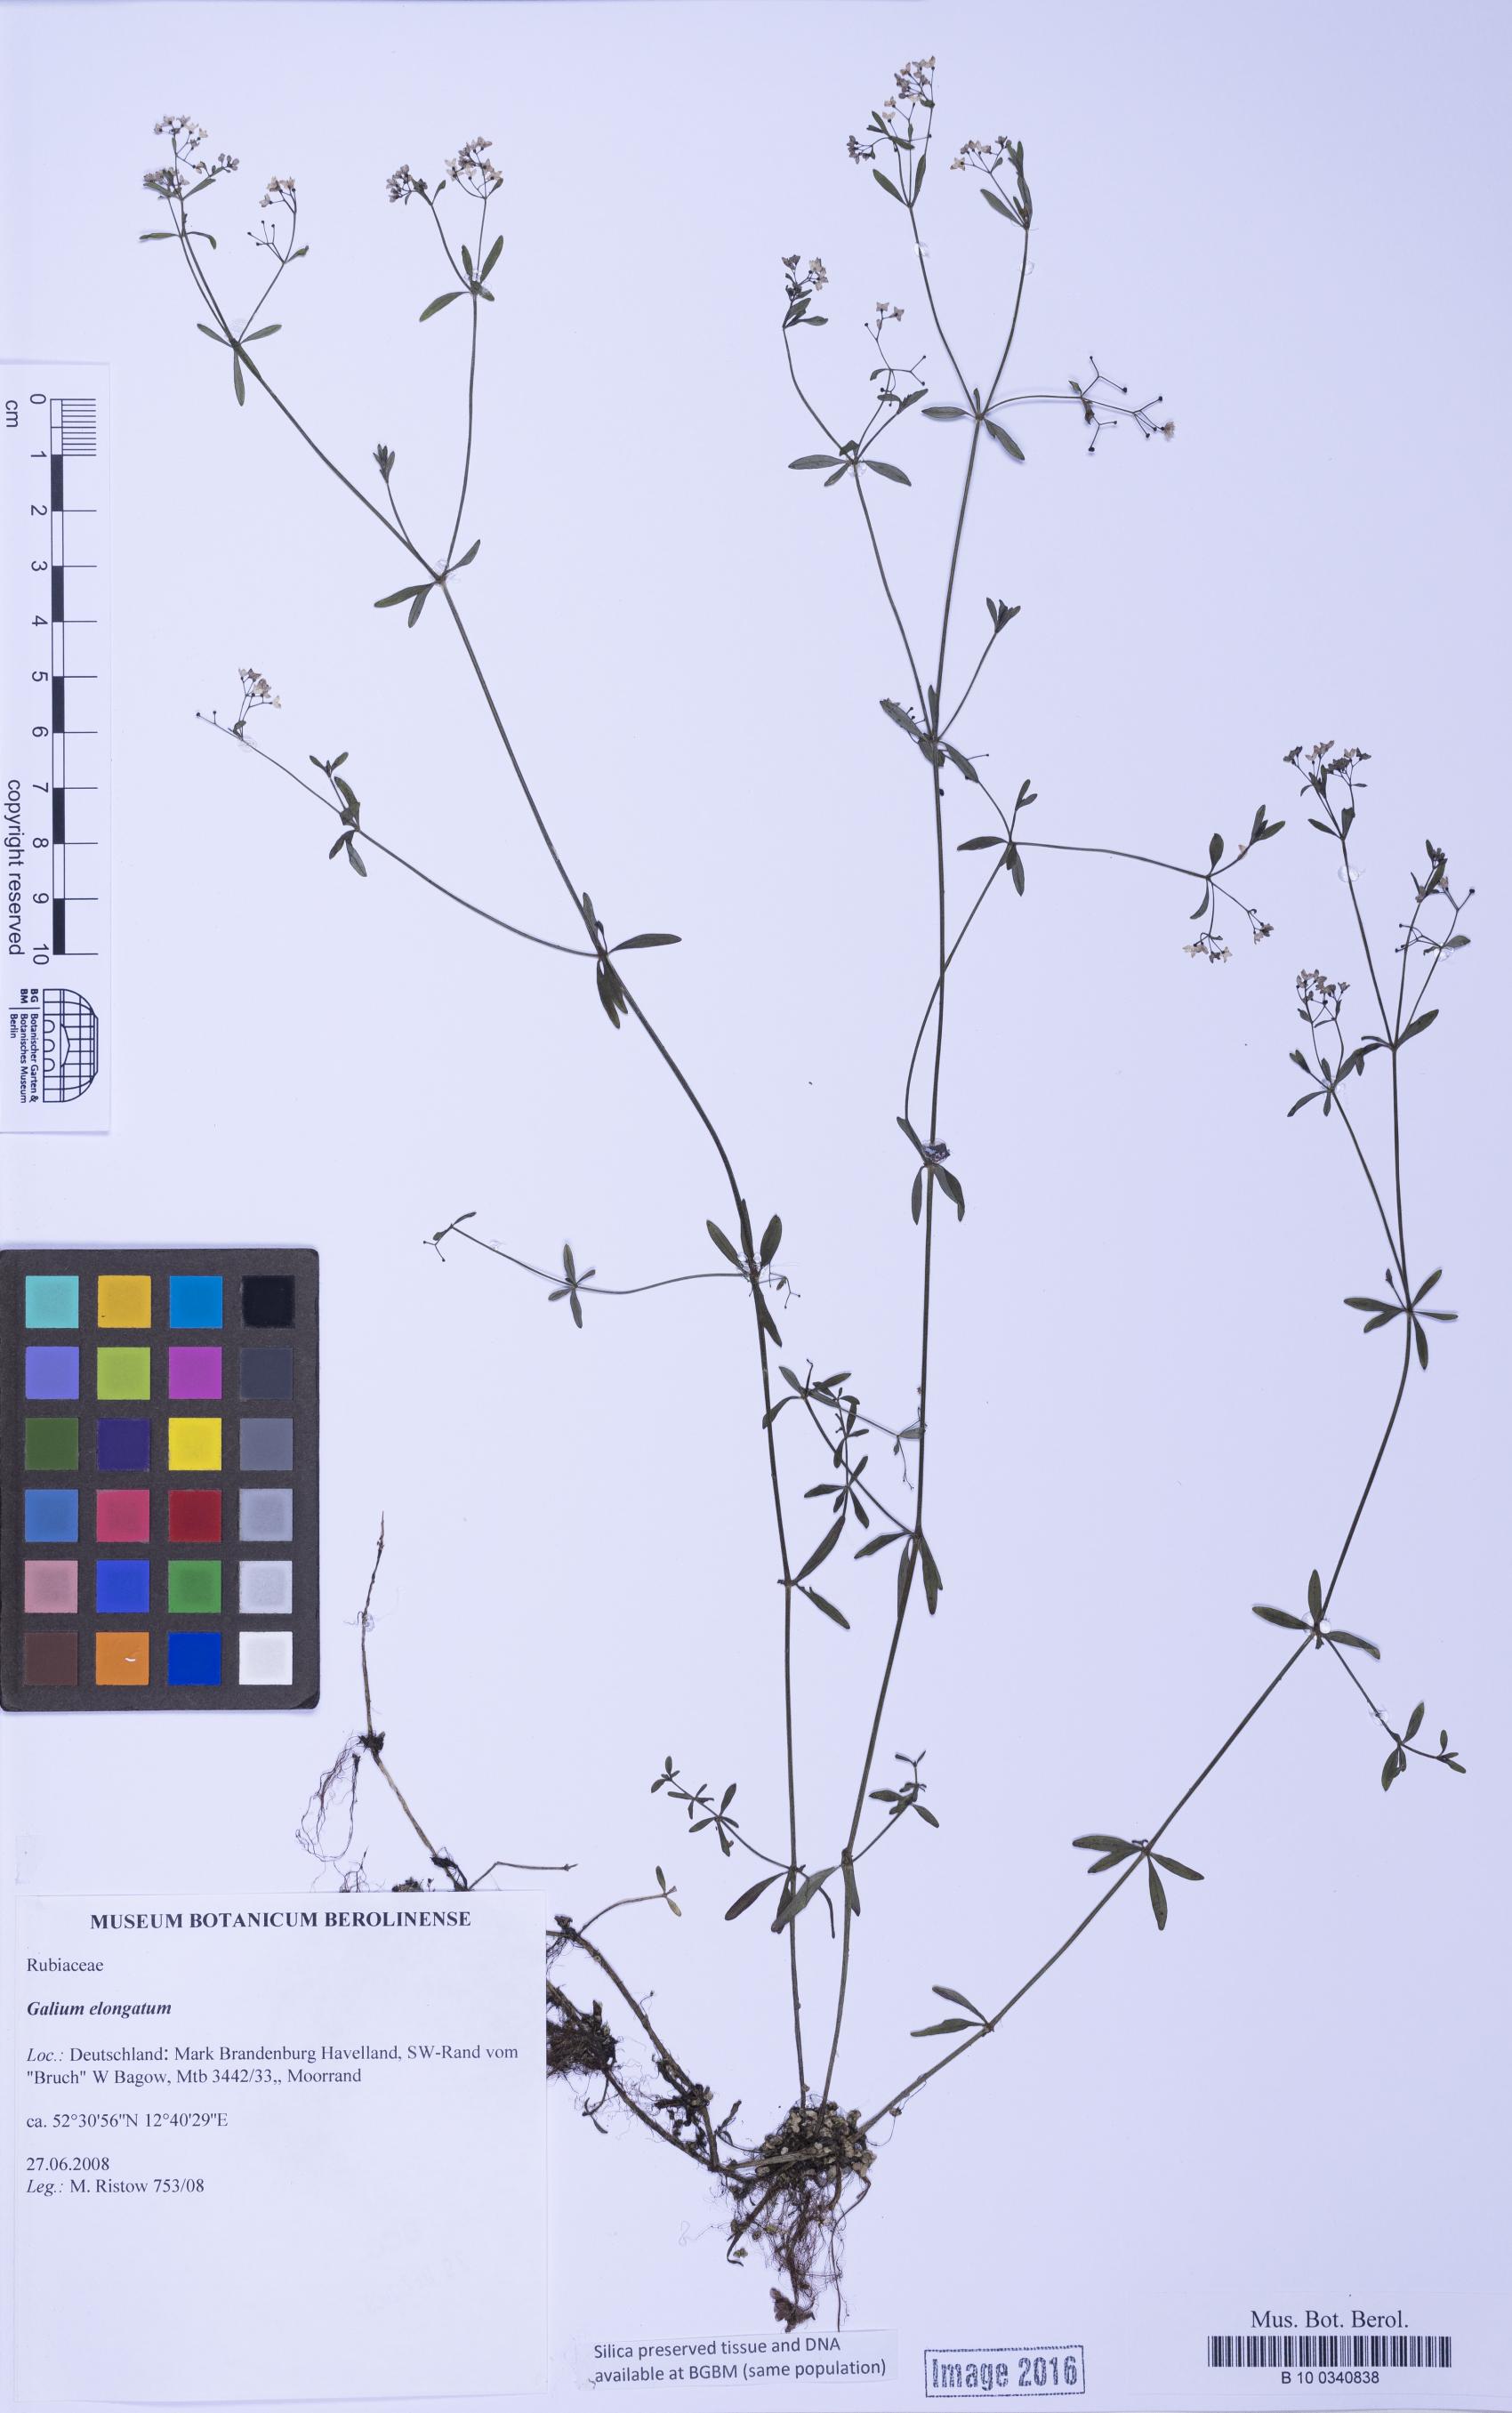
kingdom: Plantae
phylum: Tracheophyta
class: Magnoliopsida
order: Gentianales
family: Rubiaceae
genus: Galium
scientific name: Galium elongatum
